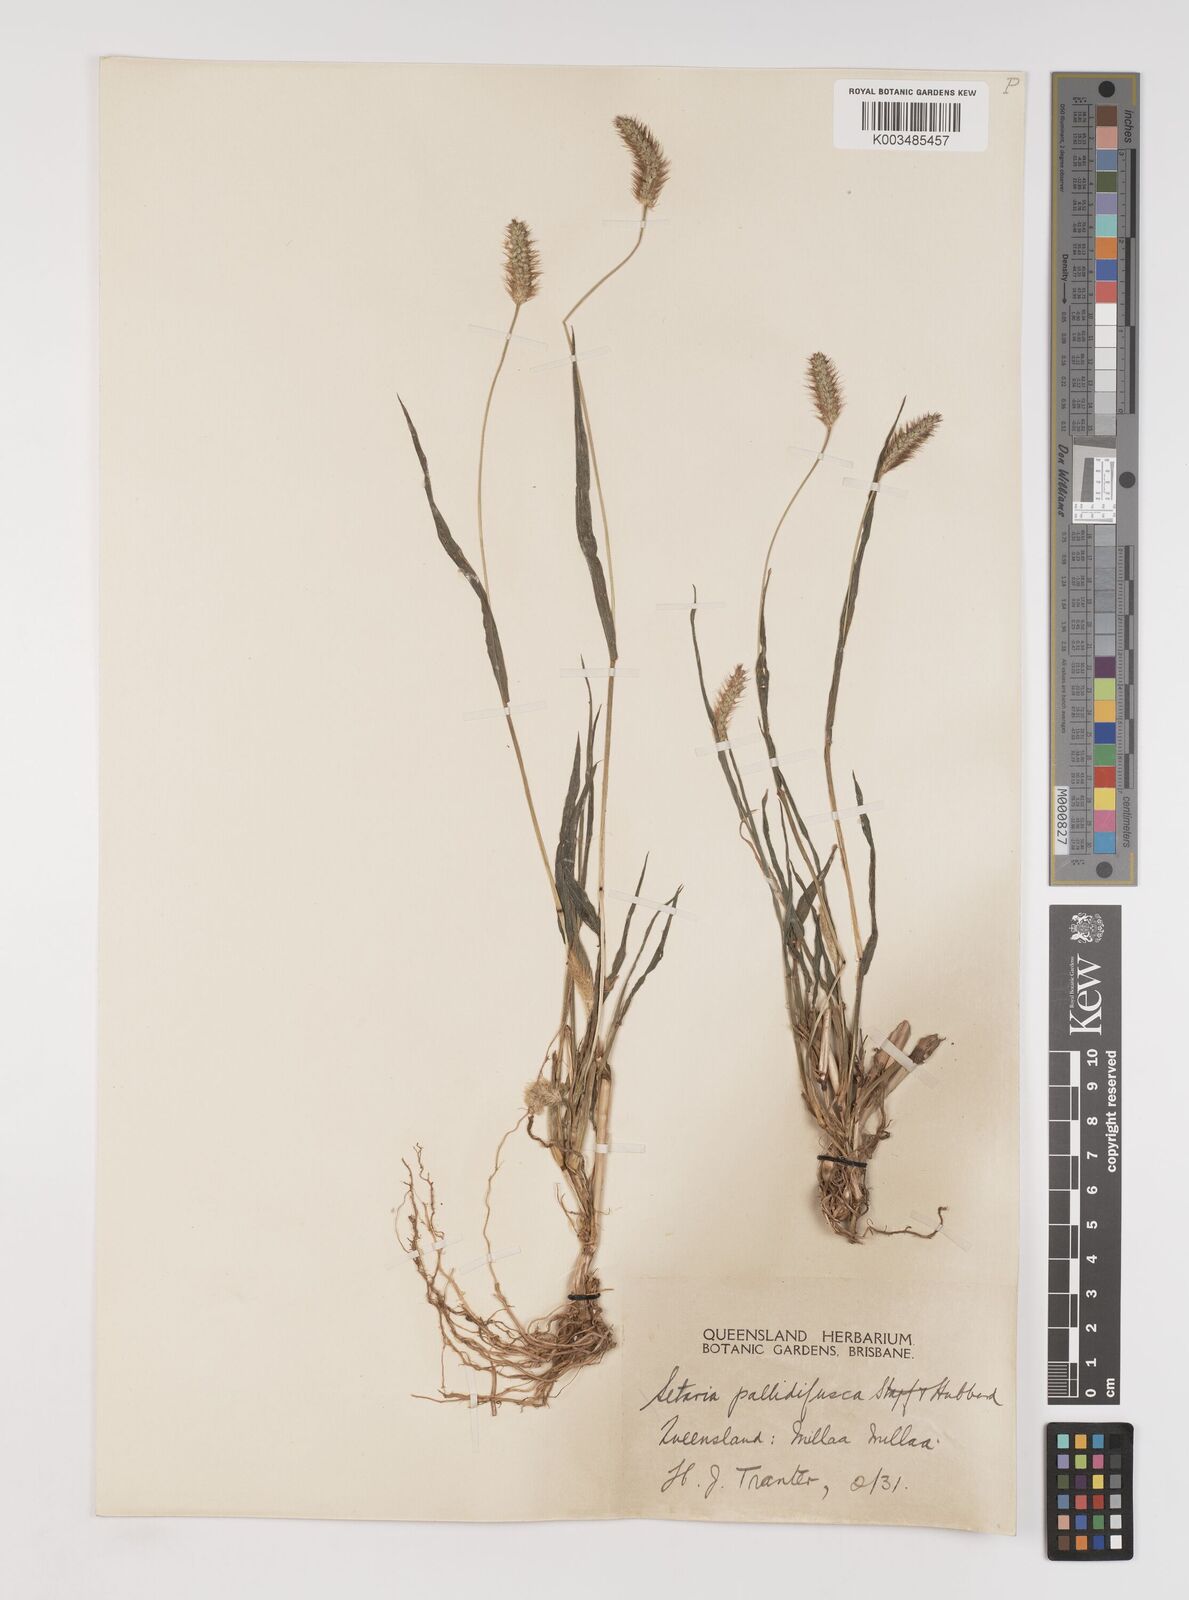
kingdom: Plantae
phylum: Tracheophyta
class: Liliopsida
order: Poales
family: Poaceae
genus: Setaria
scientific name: Setaria pumila
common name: Yellow bristle-grass
